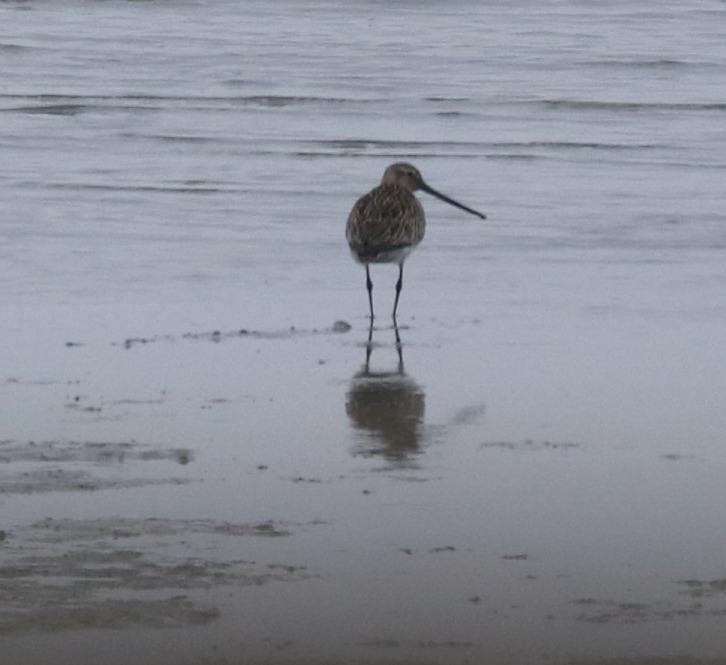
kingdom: Animalia
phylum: Chordata
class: Aves
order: Charadriiformes
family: Scolopacidae
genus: Limosa
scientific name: Limosa lapponica
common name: Lille kobbersneppe
